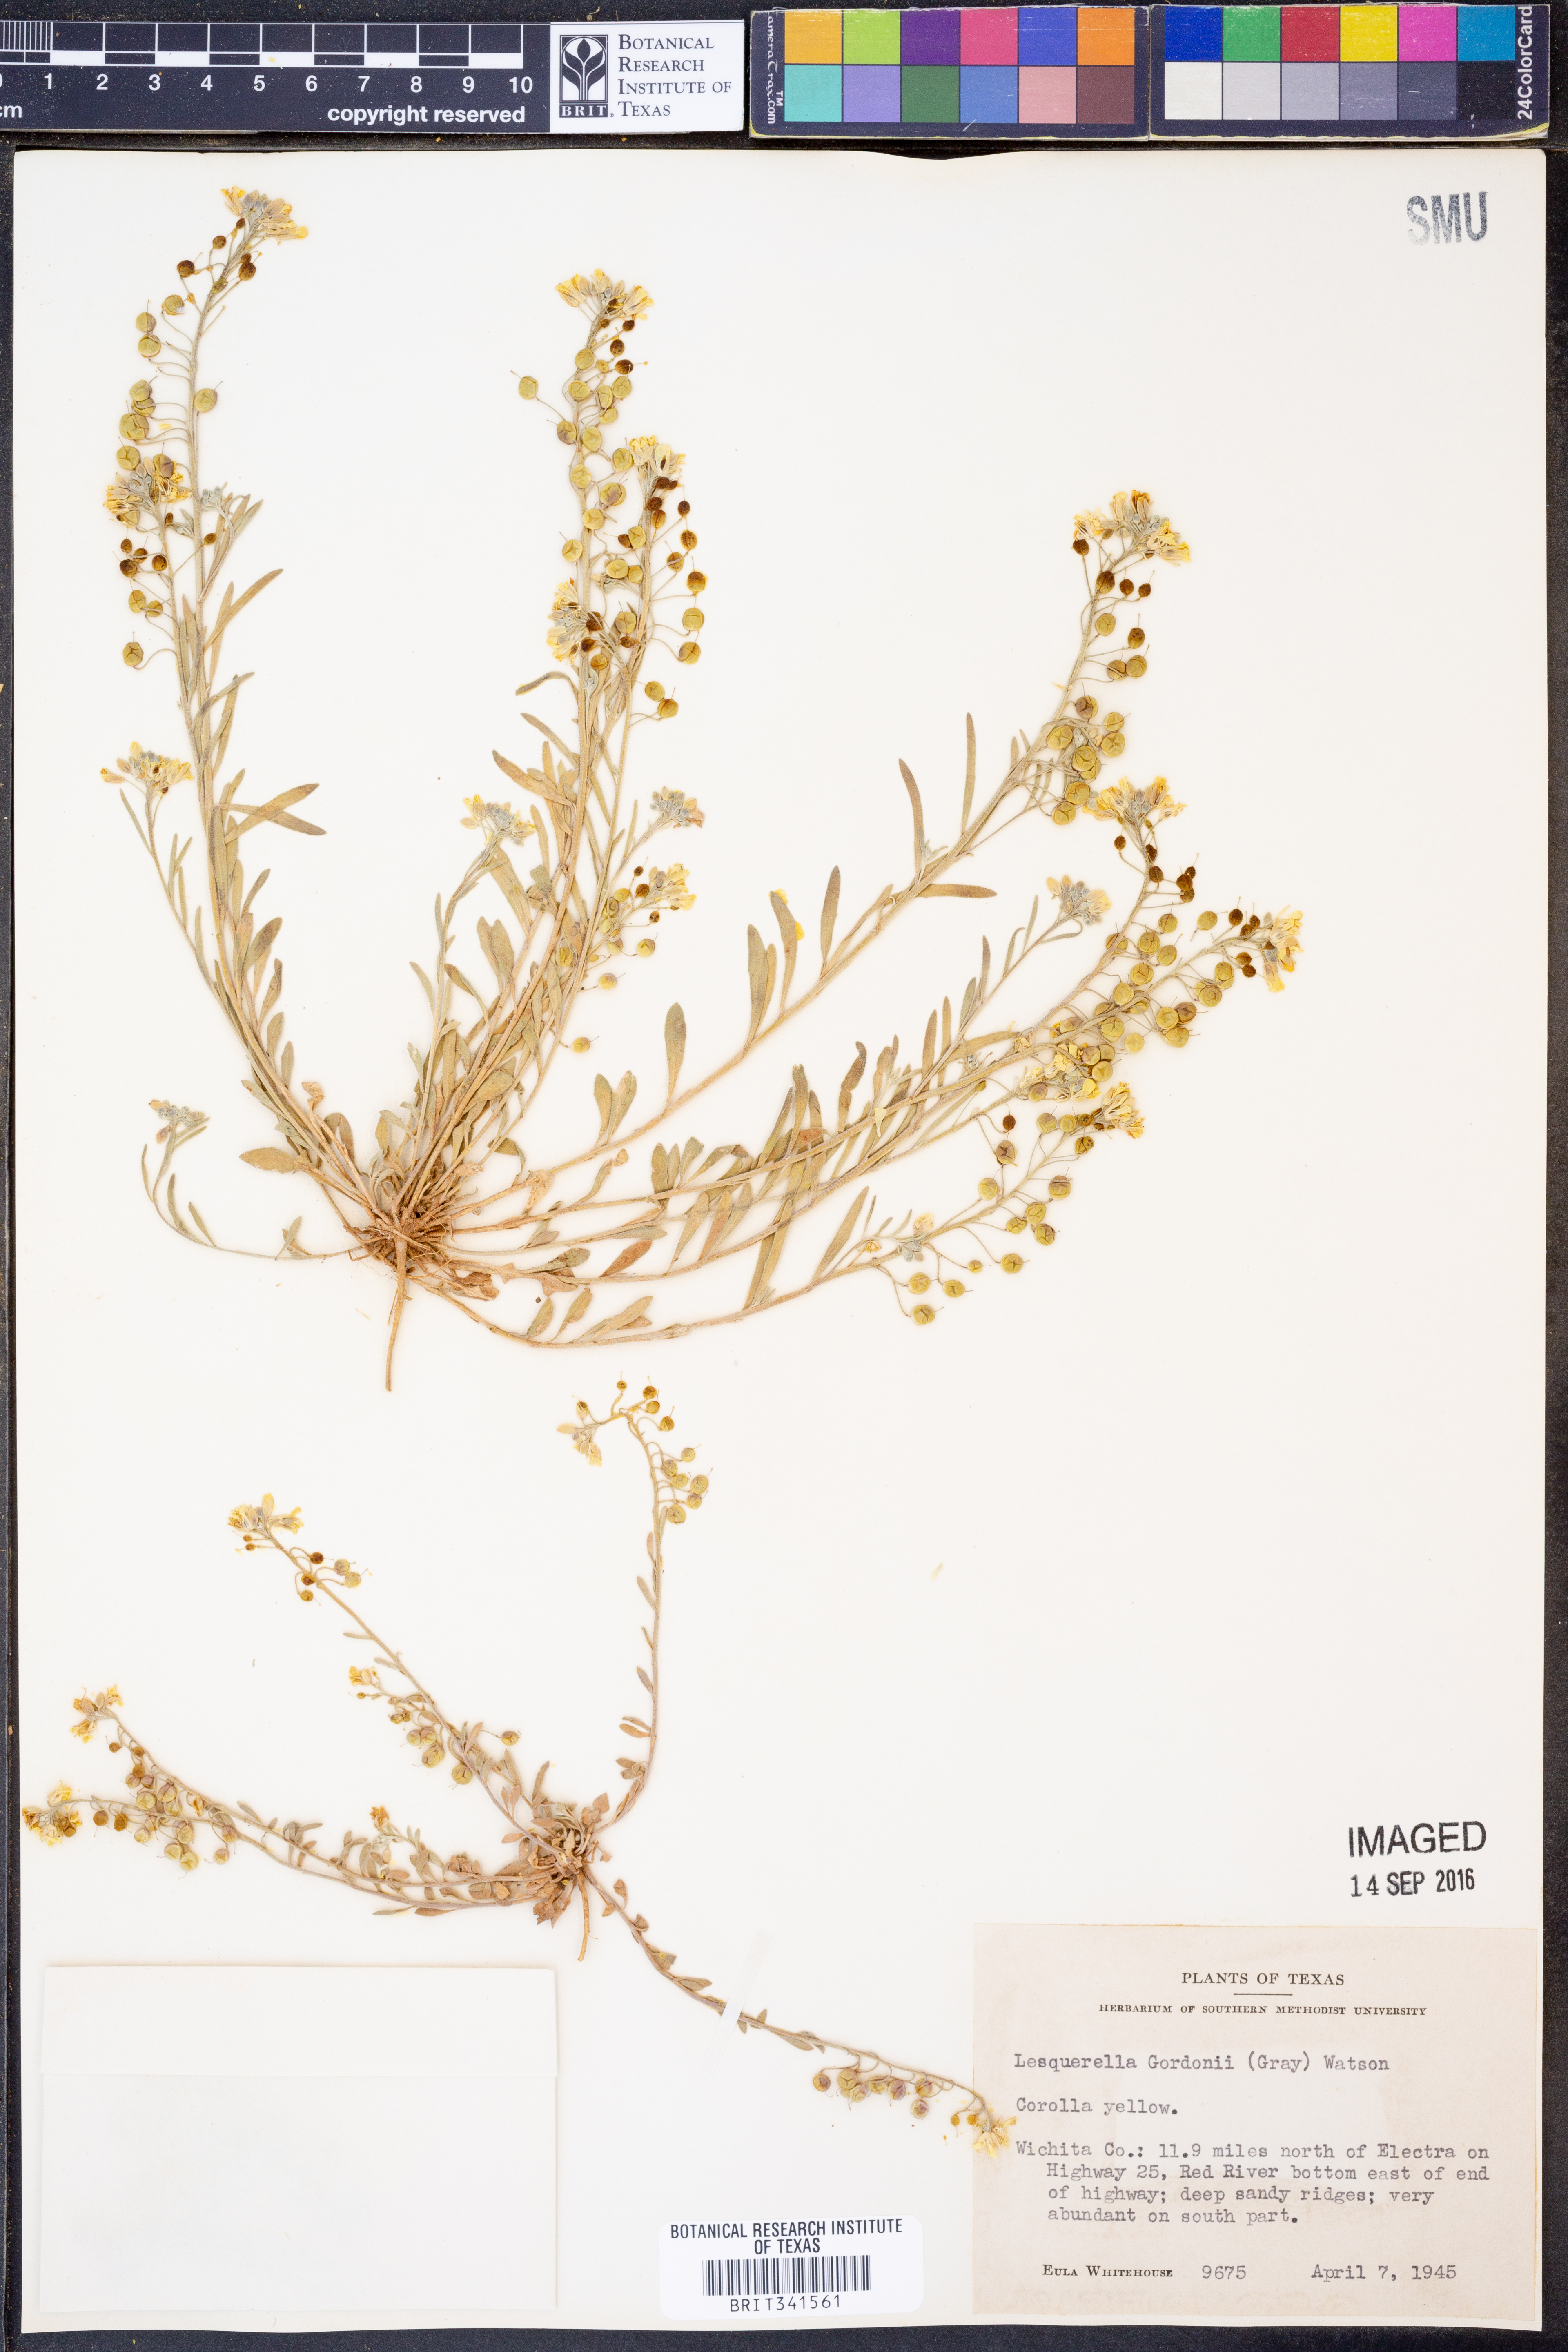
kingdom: Plantae
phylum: Tracheophyta
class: Magnoliopsida
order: Brassicales
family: Brassicaceae
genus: Physaria
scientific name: Physaria gordonii
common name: Gordon's bladderpod
